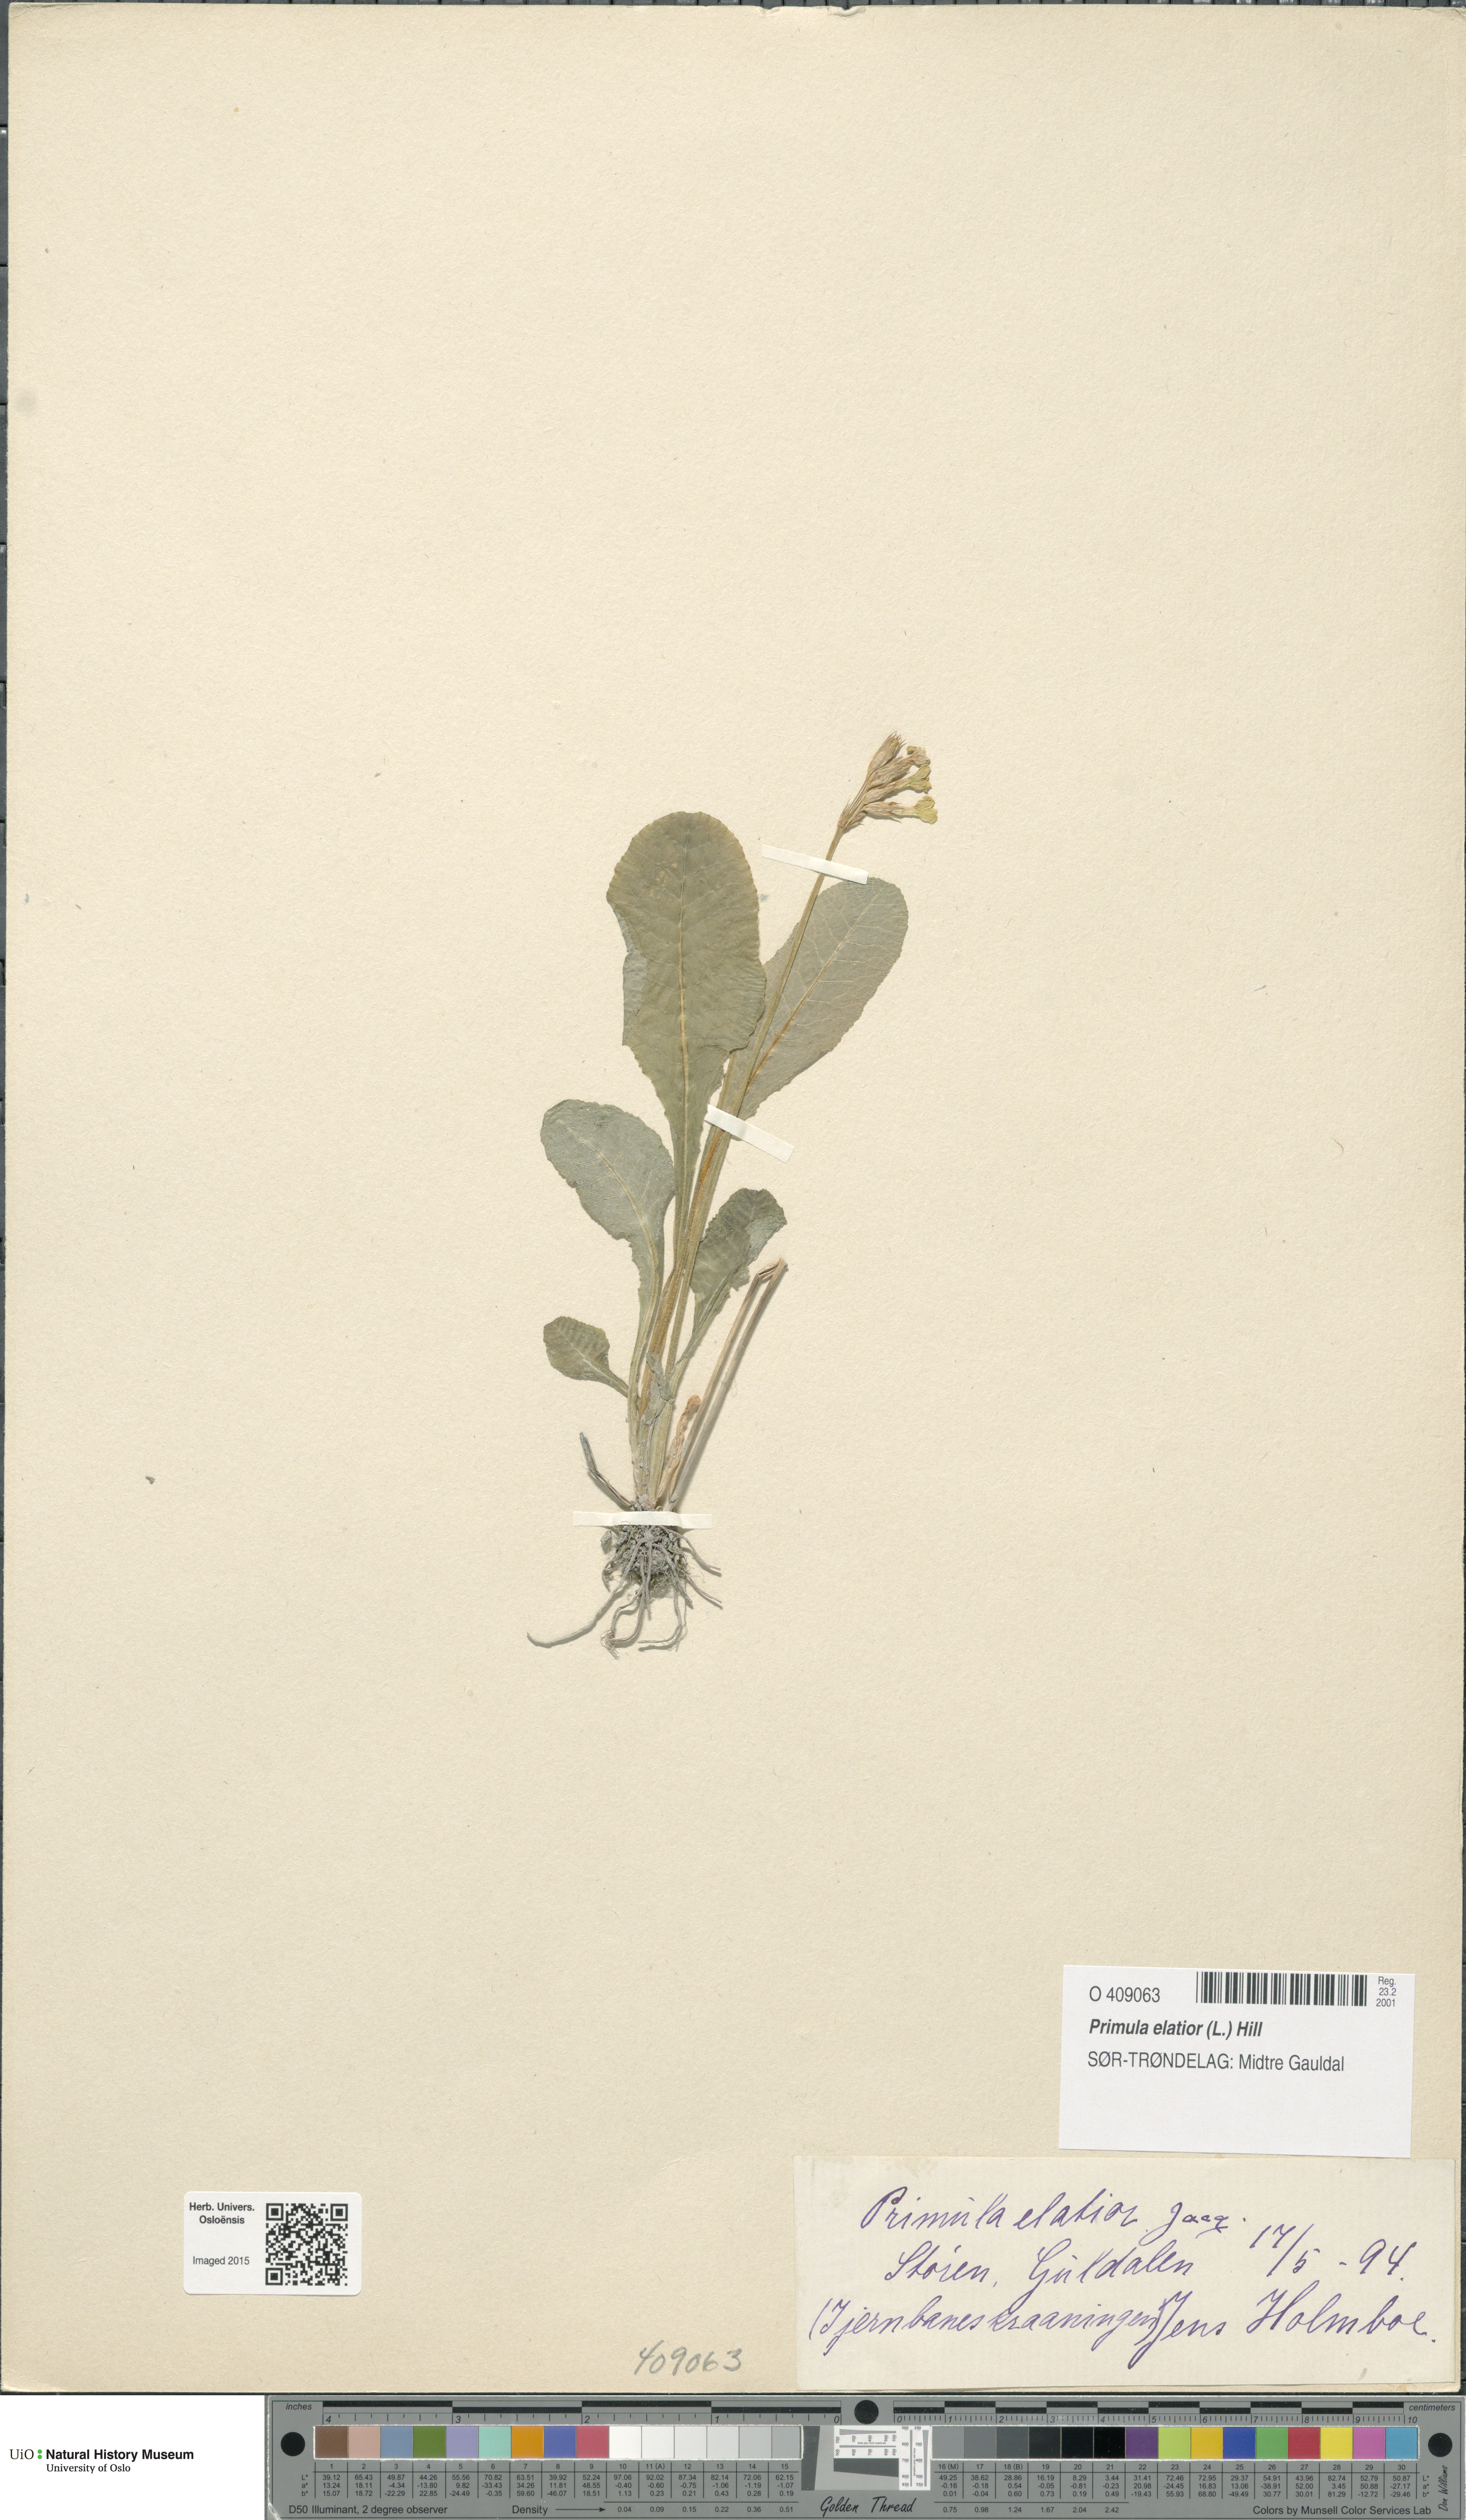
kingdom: Plantae
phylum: Tracheophyta
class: Magnoliopsida
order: Ericales
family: Primulaceae
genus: Primula
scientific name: Primula elatior
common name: Oxlip
